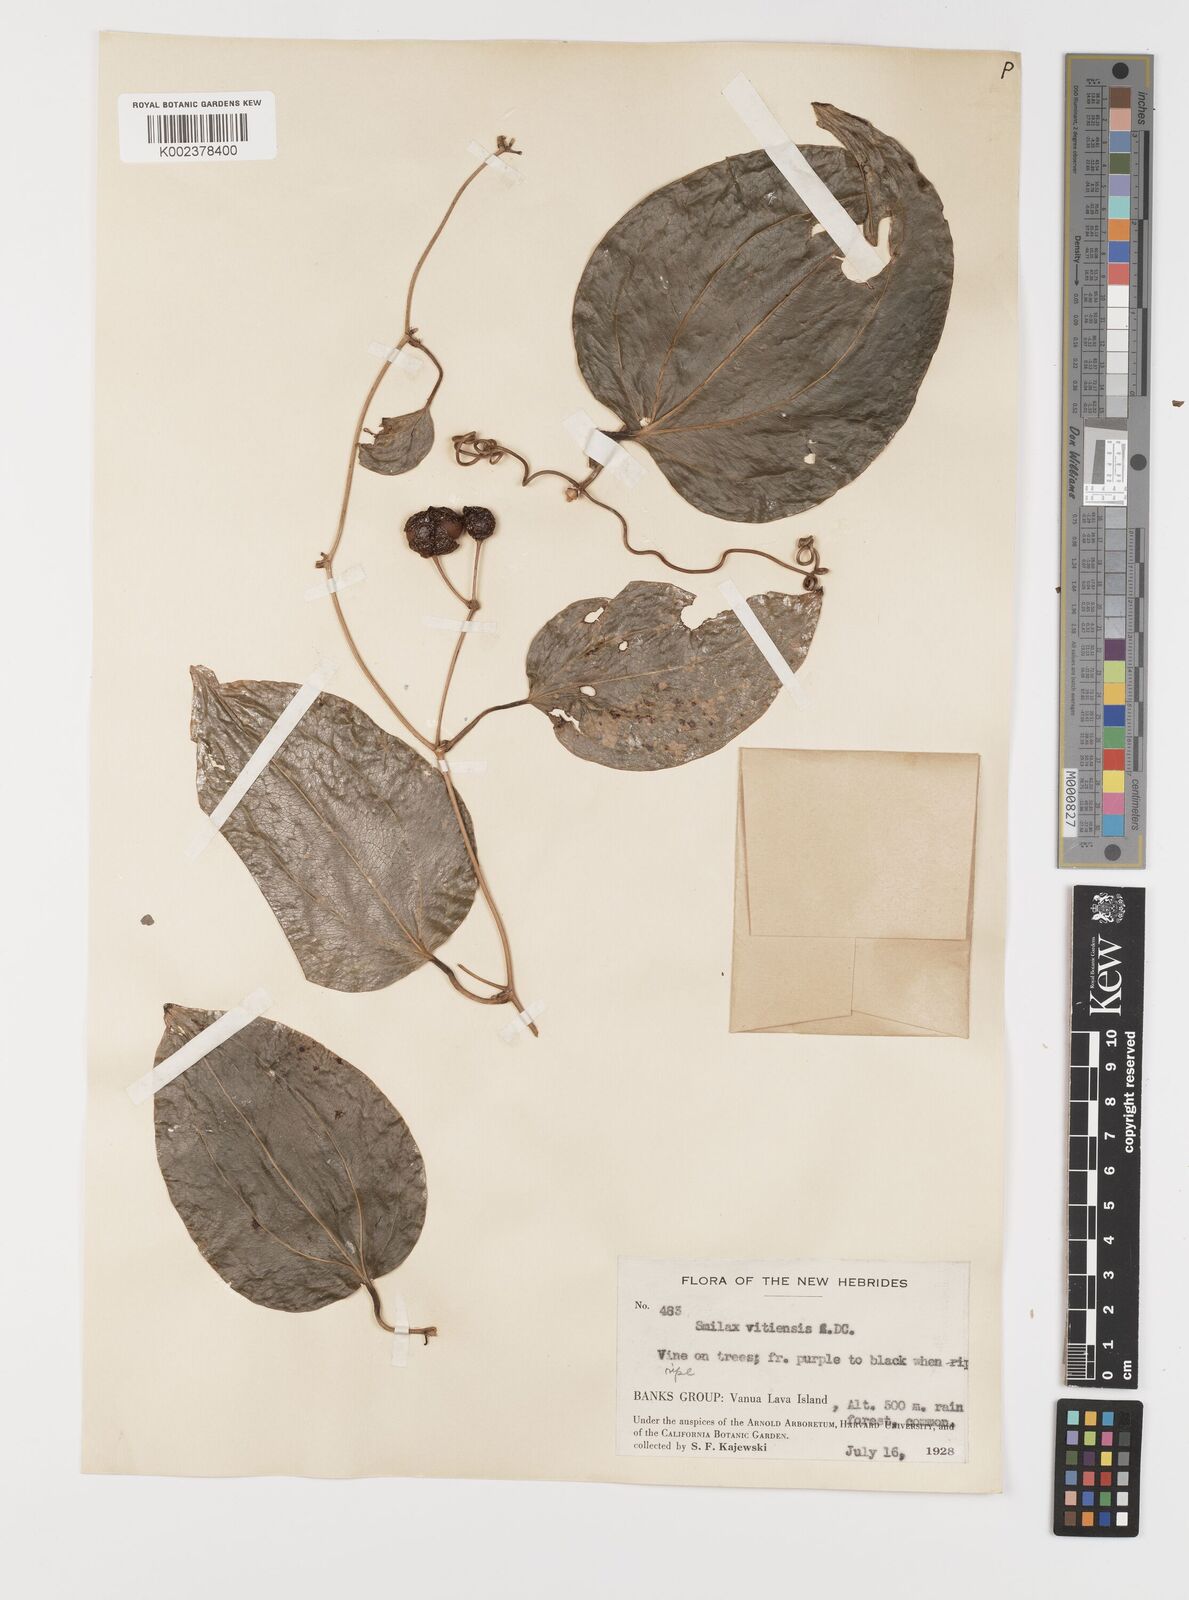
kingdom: Plantae
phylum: Tracheophyta
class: Liliopsida
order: Liliales
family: Smilacaceae
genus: Smilax
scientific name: Smilax vitiensis
